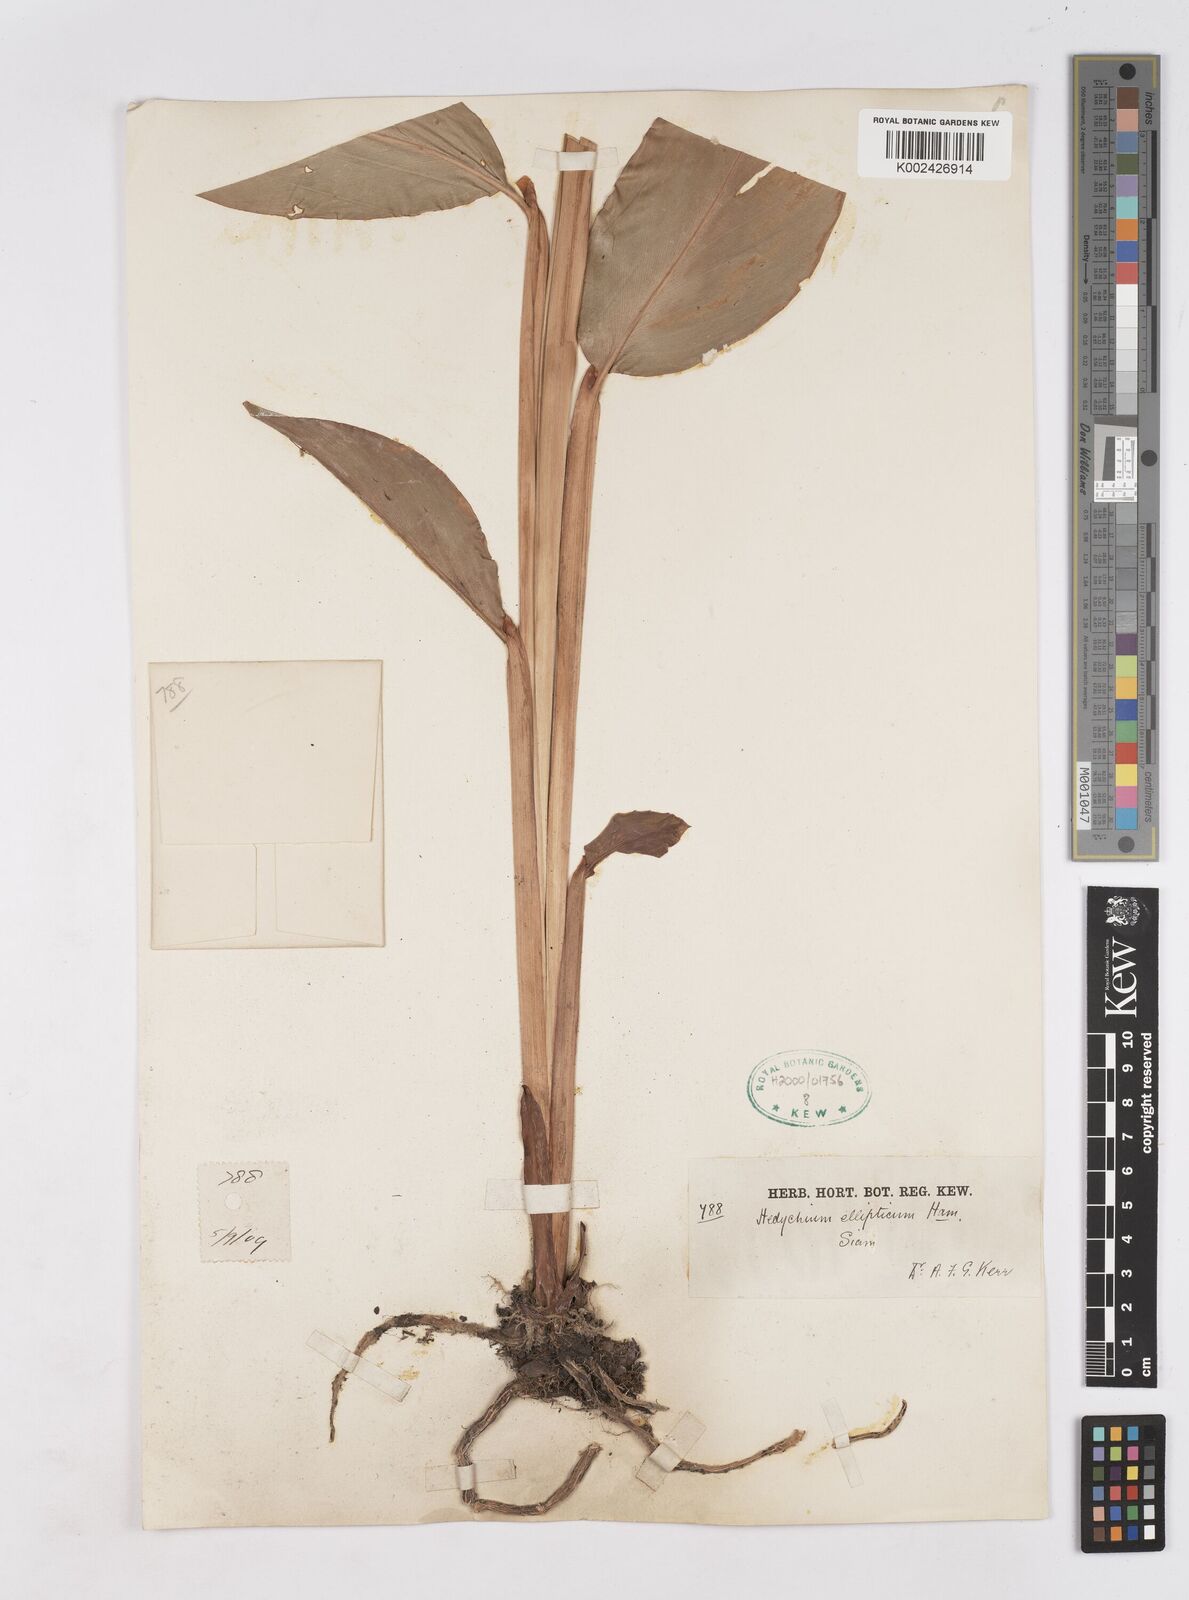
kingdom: Plantae
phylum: Tracheophyta
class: Liliopsida
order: Zingiberales
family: Zingiberaceae
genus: Hedychium
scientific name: Hedychium ellipticum
